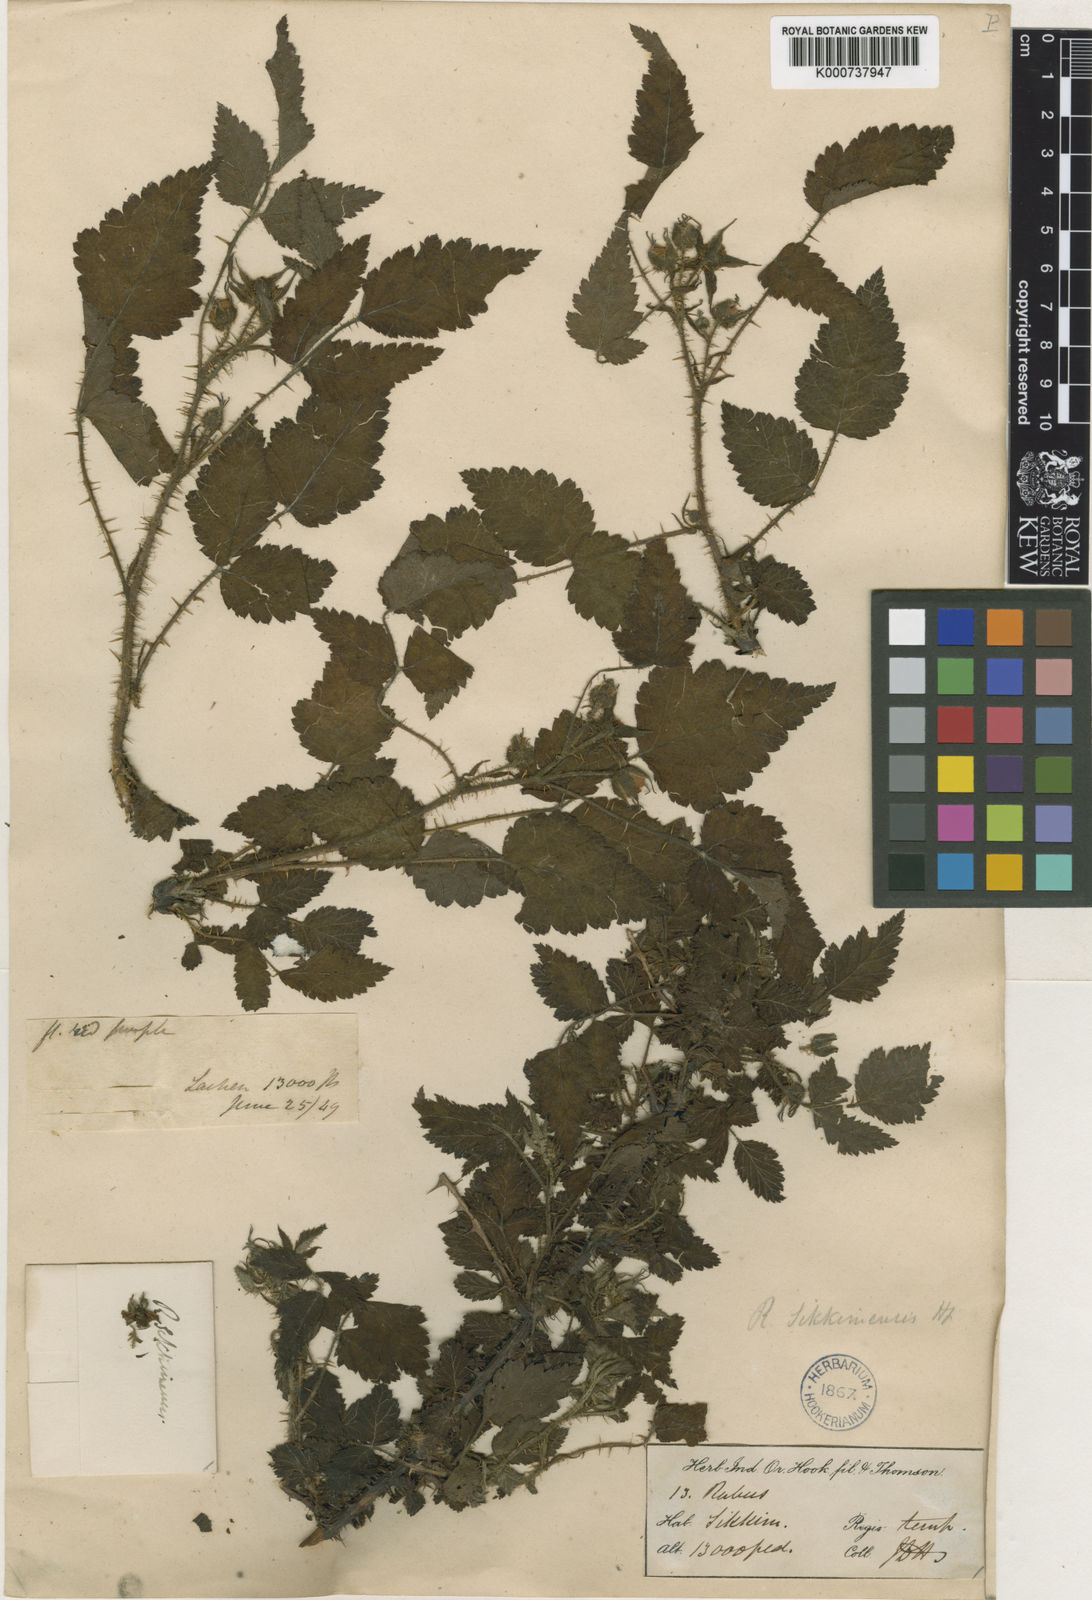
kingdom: Plantae
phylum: Tracheophyta
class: Magnoliopsida
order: Rosales
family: Rosaceae
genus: Rubus
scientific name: Rubus sikkimensis
